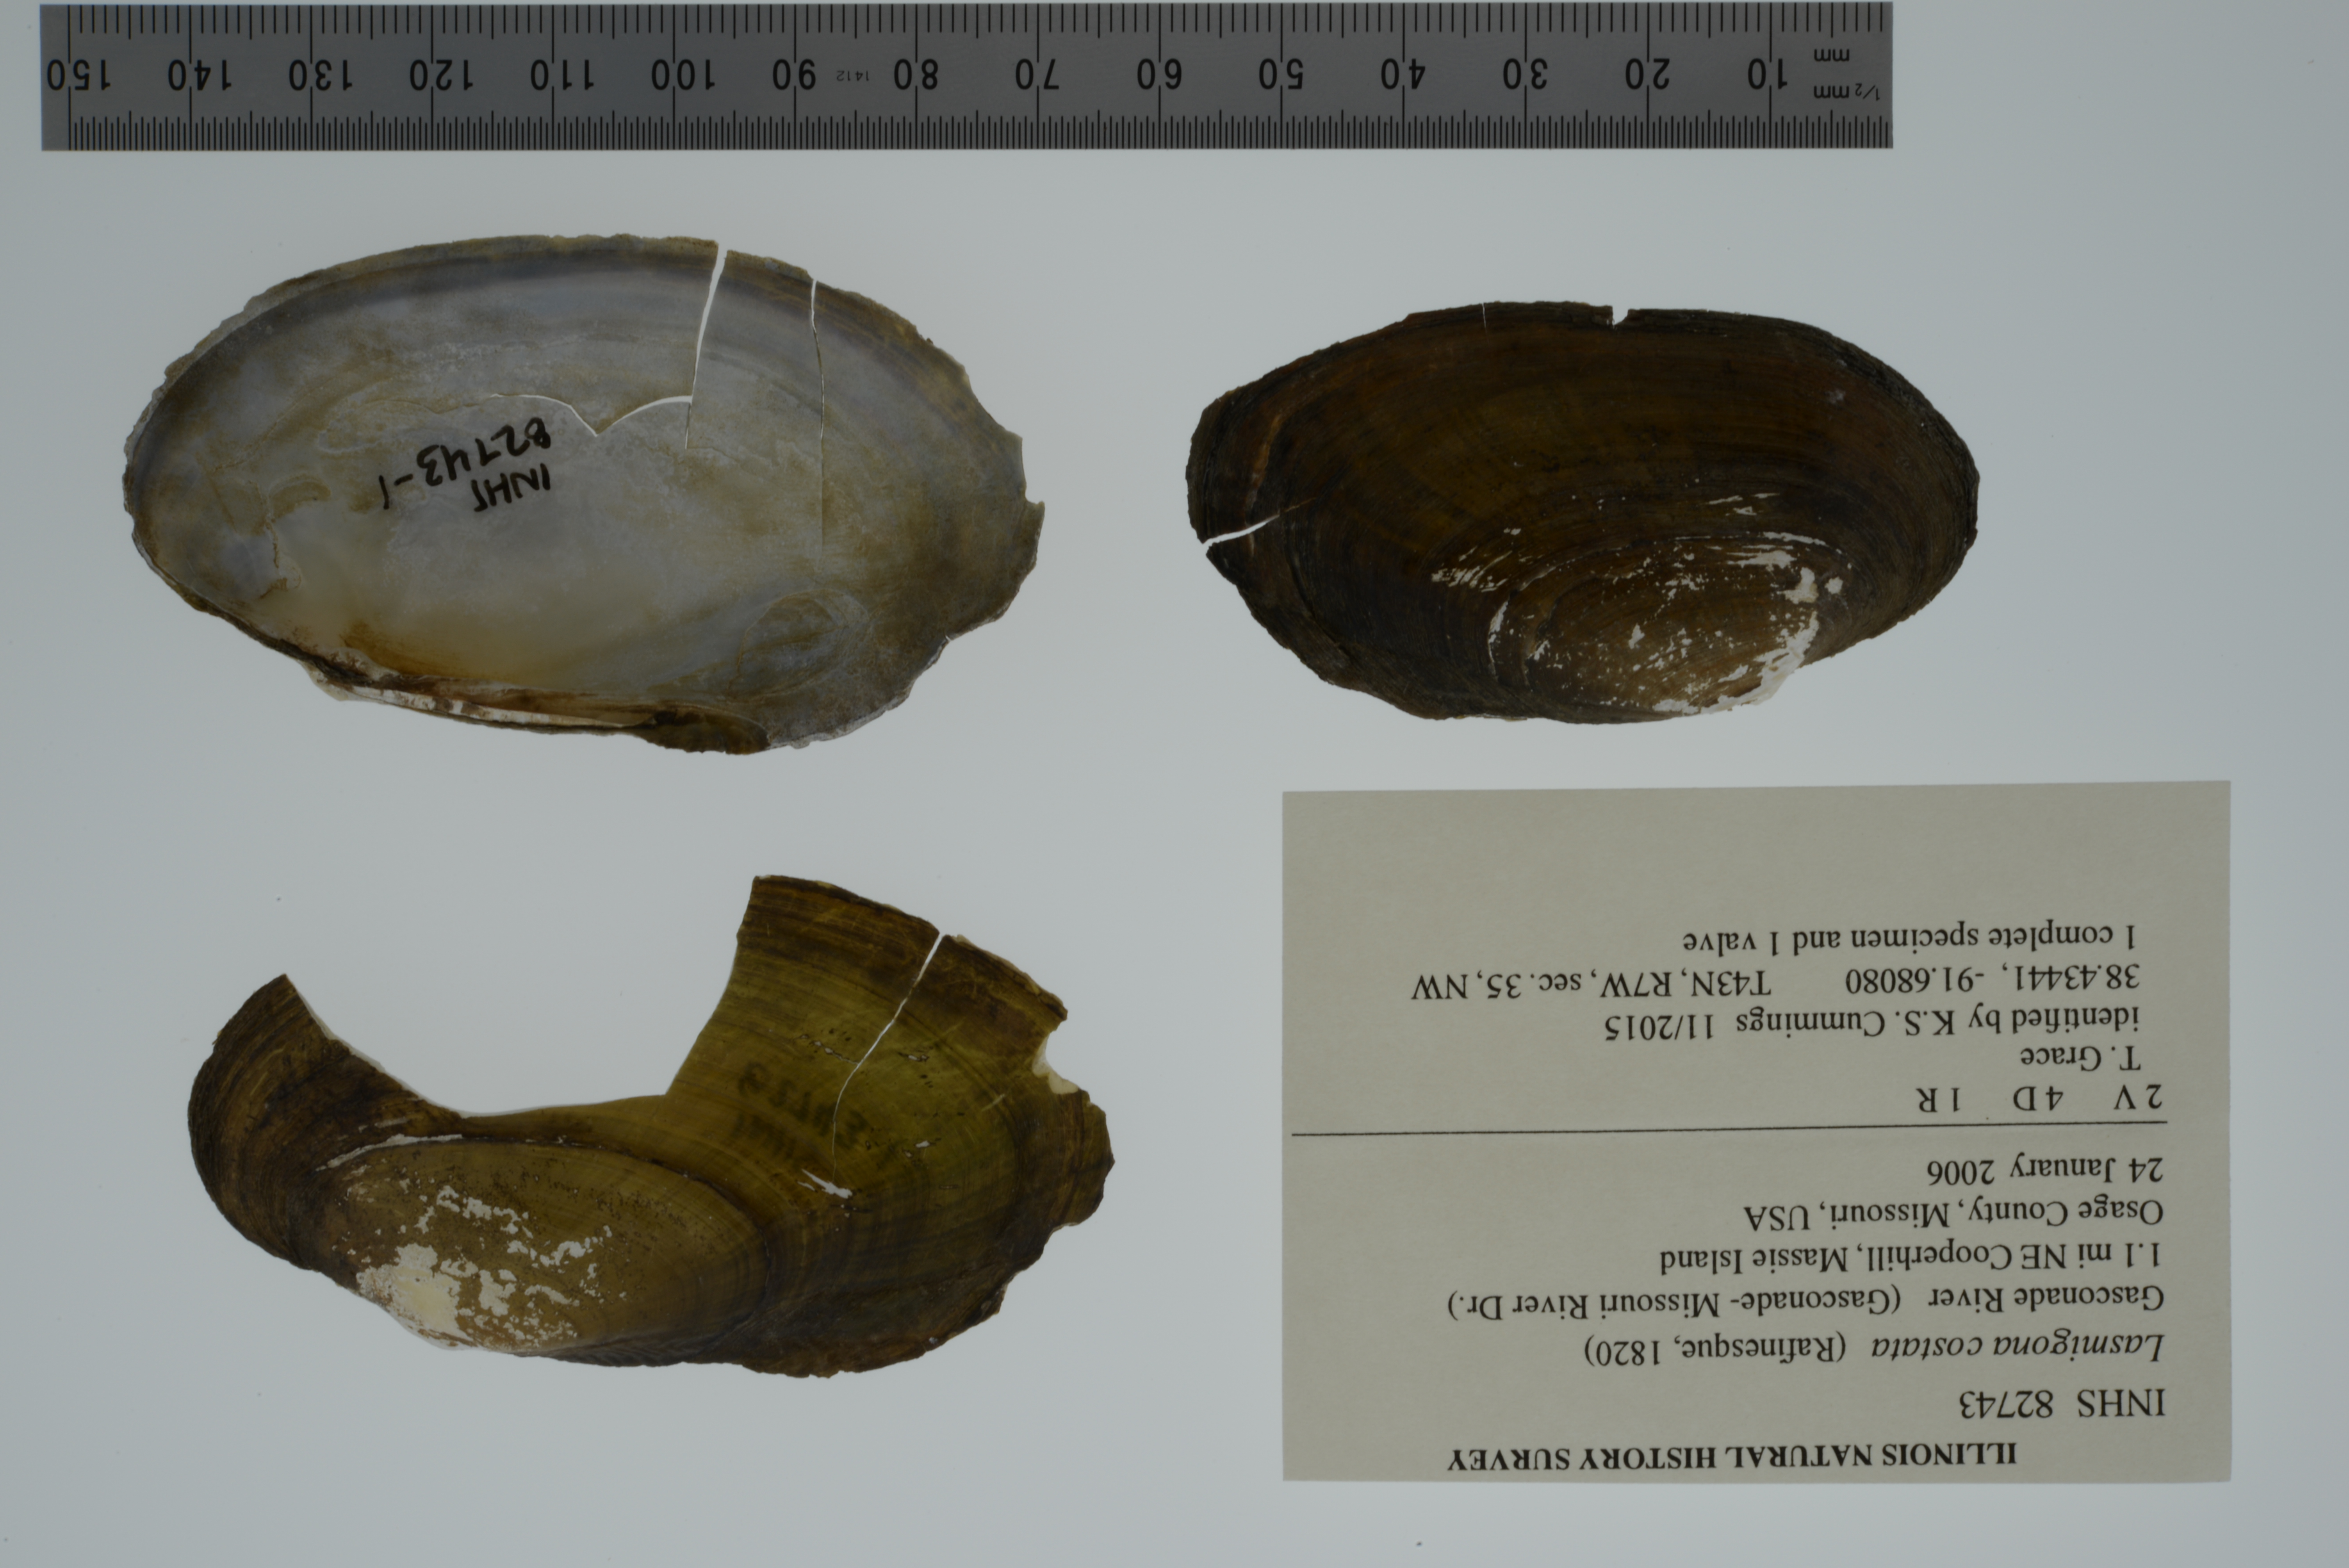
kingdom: Animalia
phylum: Mollusca
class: Bivalvia
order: Unionida
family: Unionidae
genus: Lasmigona
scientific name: Lasmigona costata
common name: Flutedshell
